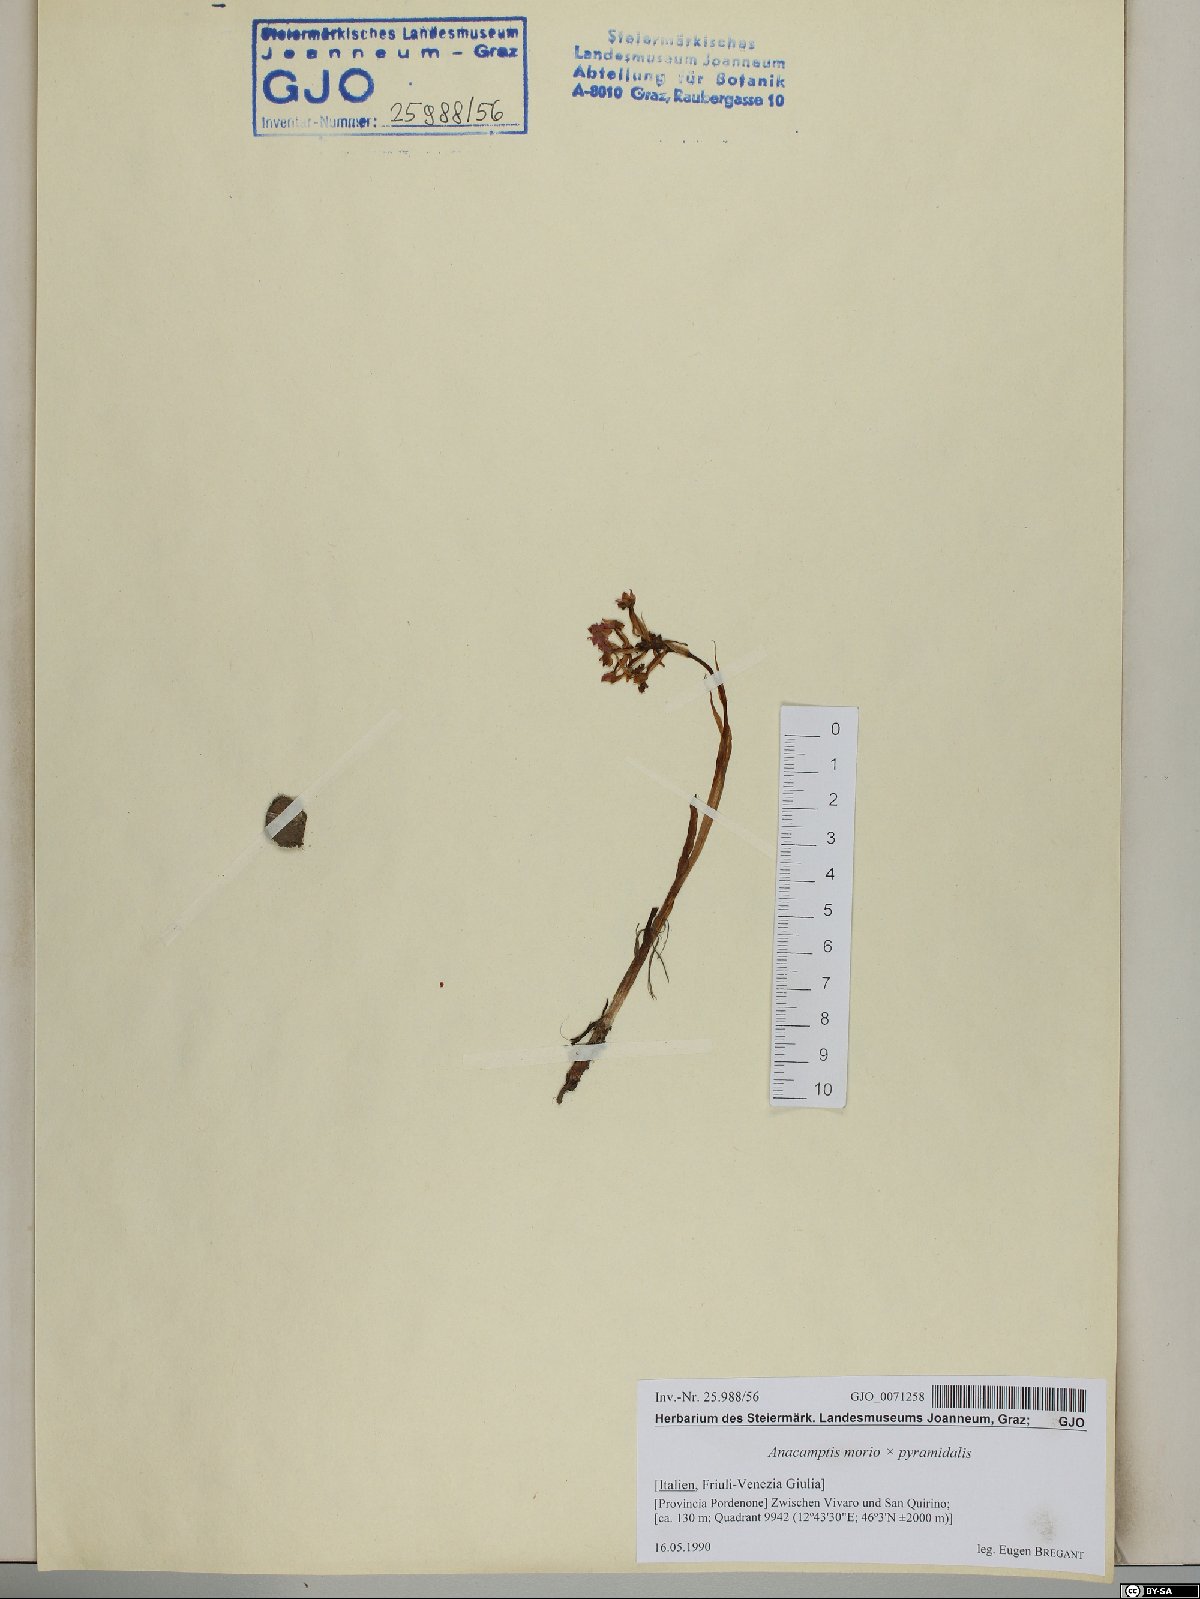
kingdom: Plantae
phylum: Tracheophyta
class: Liliopsida
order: Asparagales
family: Orchidaceae
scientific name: Orchidaceae
